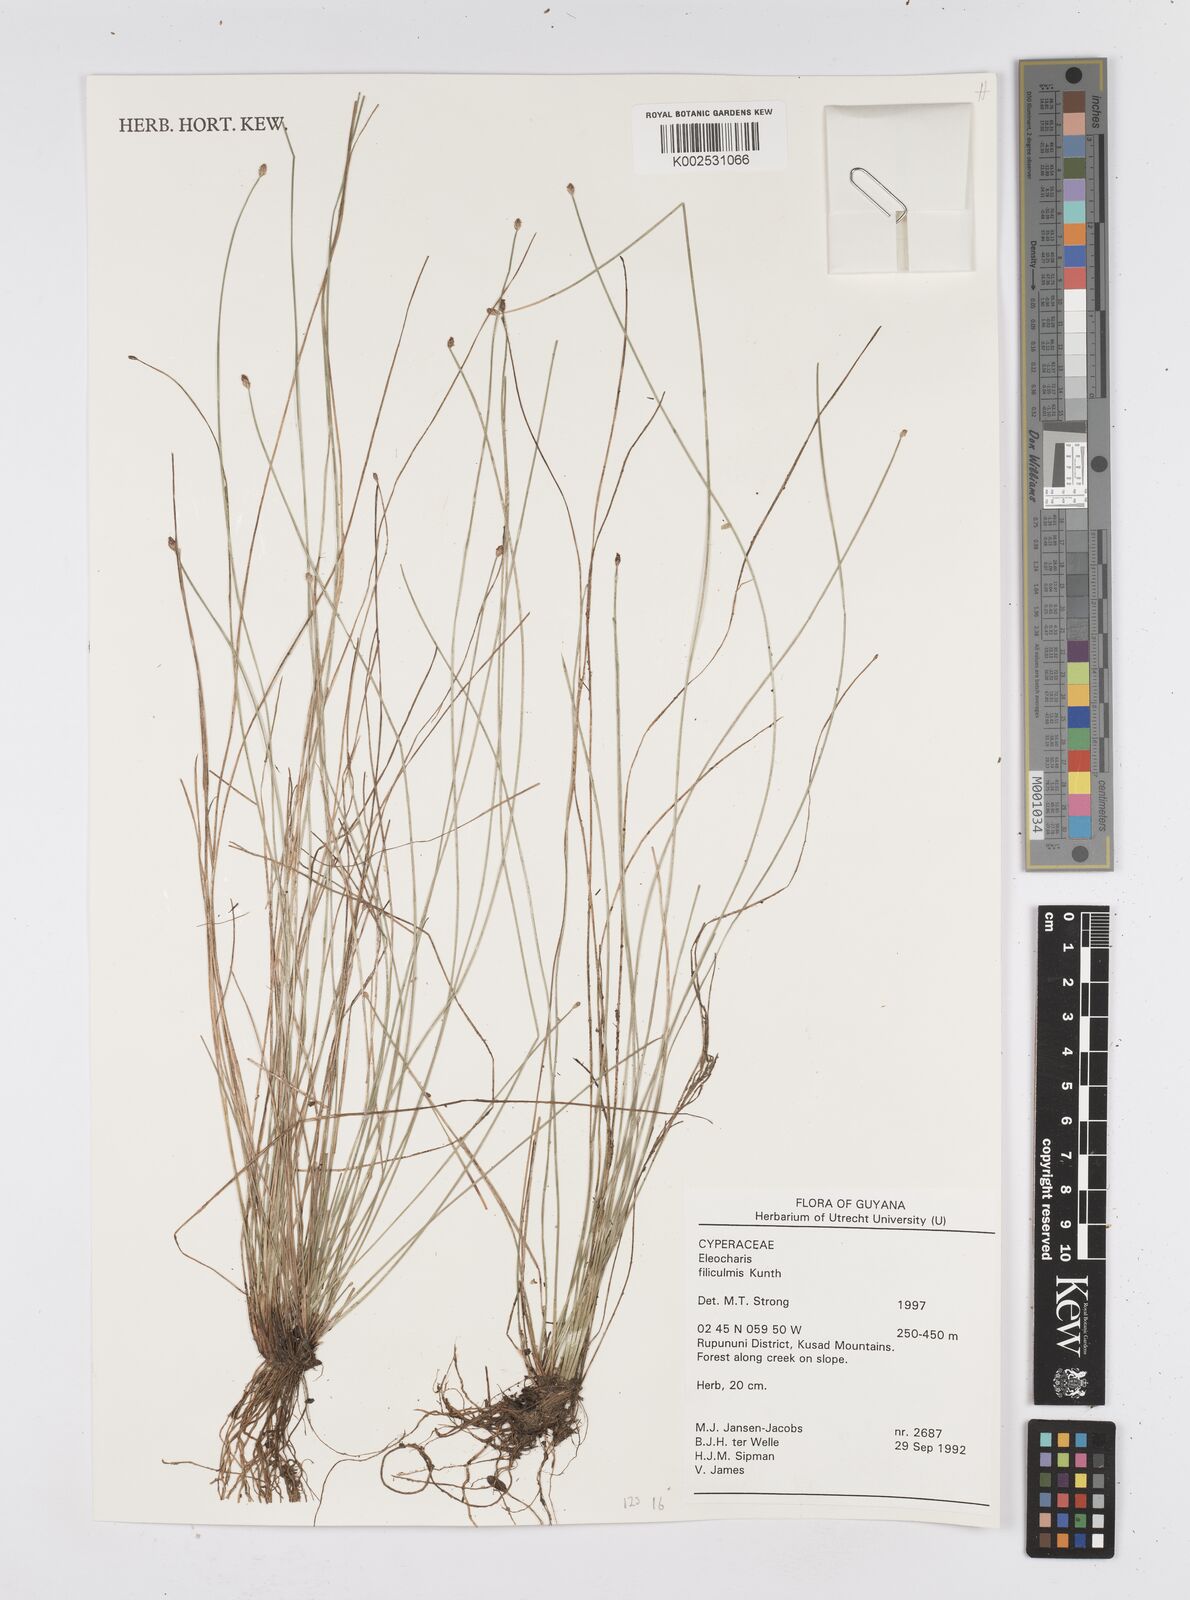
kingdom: Plantae
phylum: Tracheophyta
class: Liliopsida
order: Poales
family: Cyperaceae
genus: Eleocharis
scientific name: Eleocharis filiculmis
